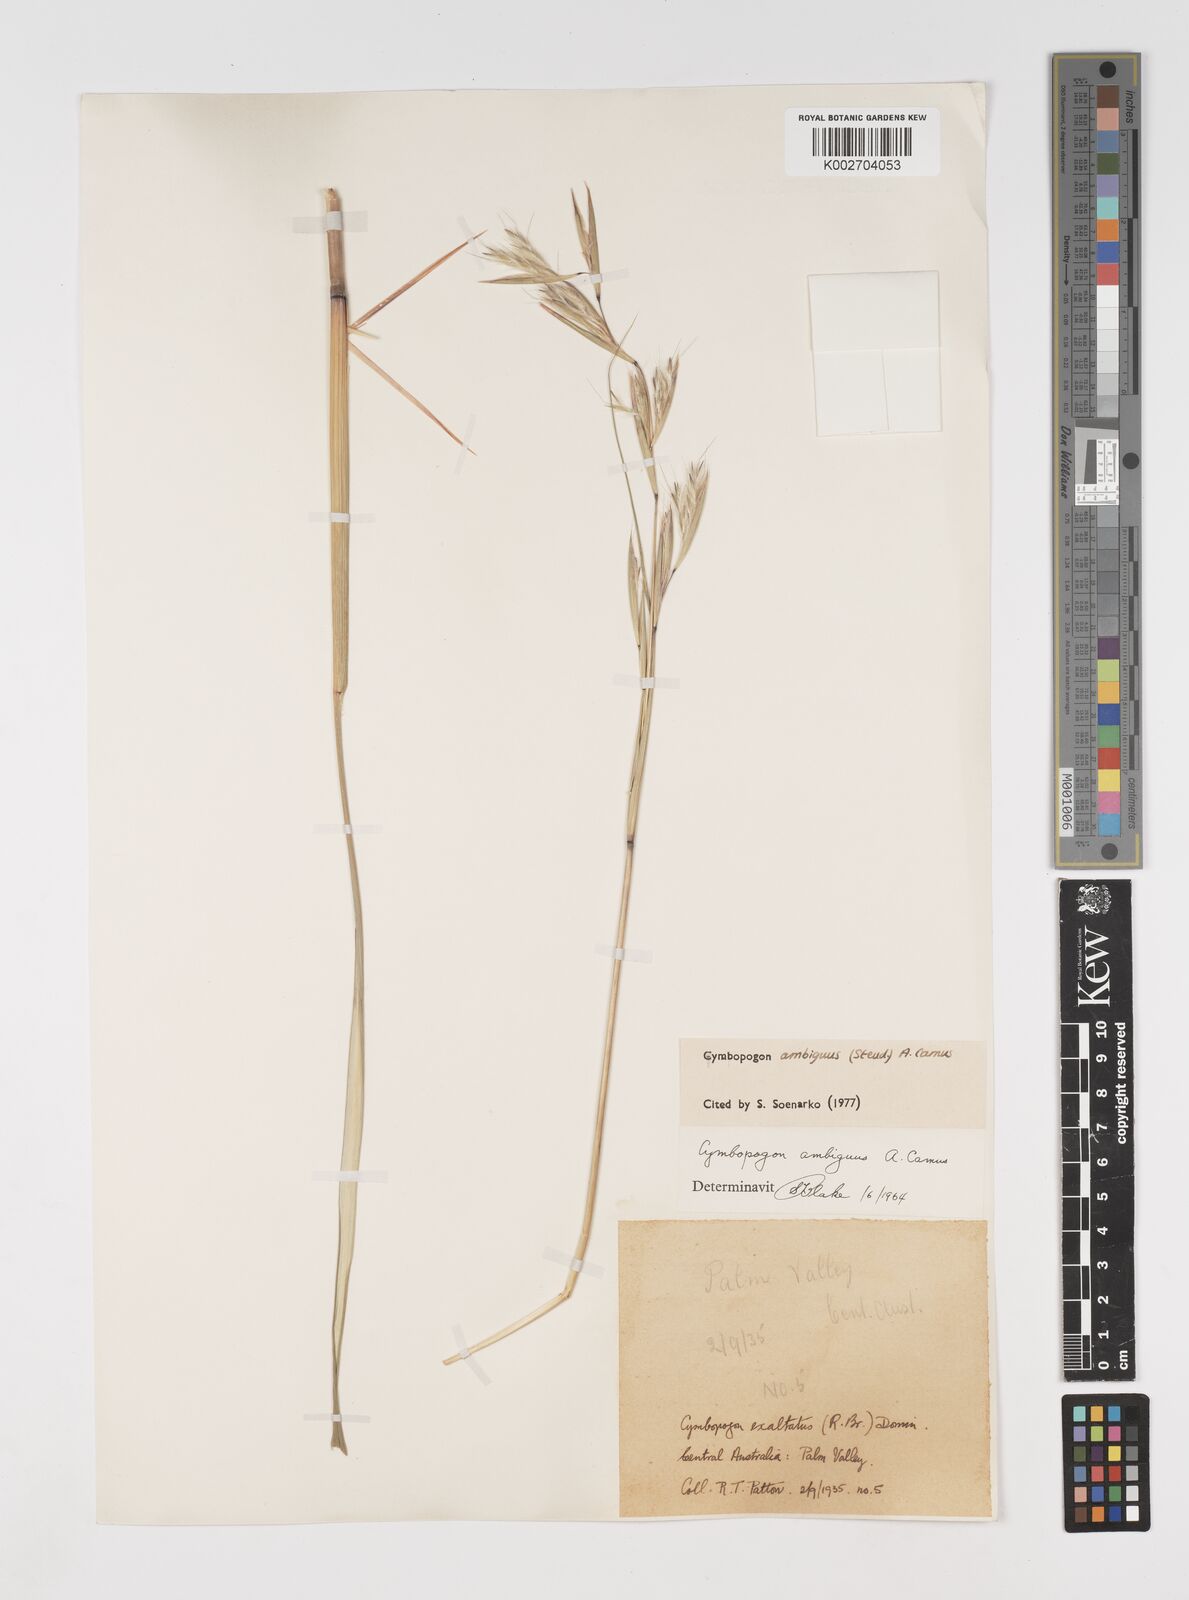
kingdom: Plantae
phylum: Tracheophyta
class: Liliopsida
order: Poales
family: Poaceae
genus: Cymbopogon
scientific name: Cymbopogon ambiguus
